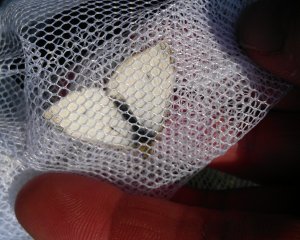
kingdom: Animalia
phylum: Arthropoda
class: Insecta
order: Lepidoptera
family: Pieridae
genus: Pieris
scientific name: Pieris rapae
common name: Cabbage White
